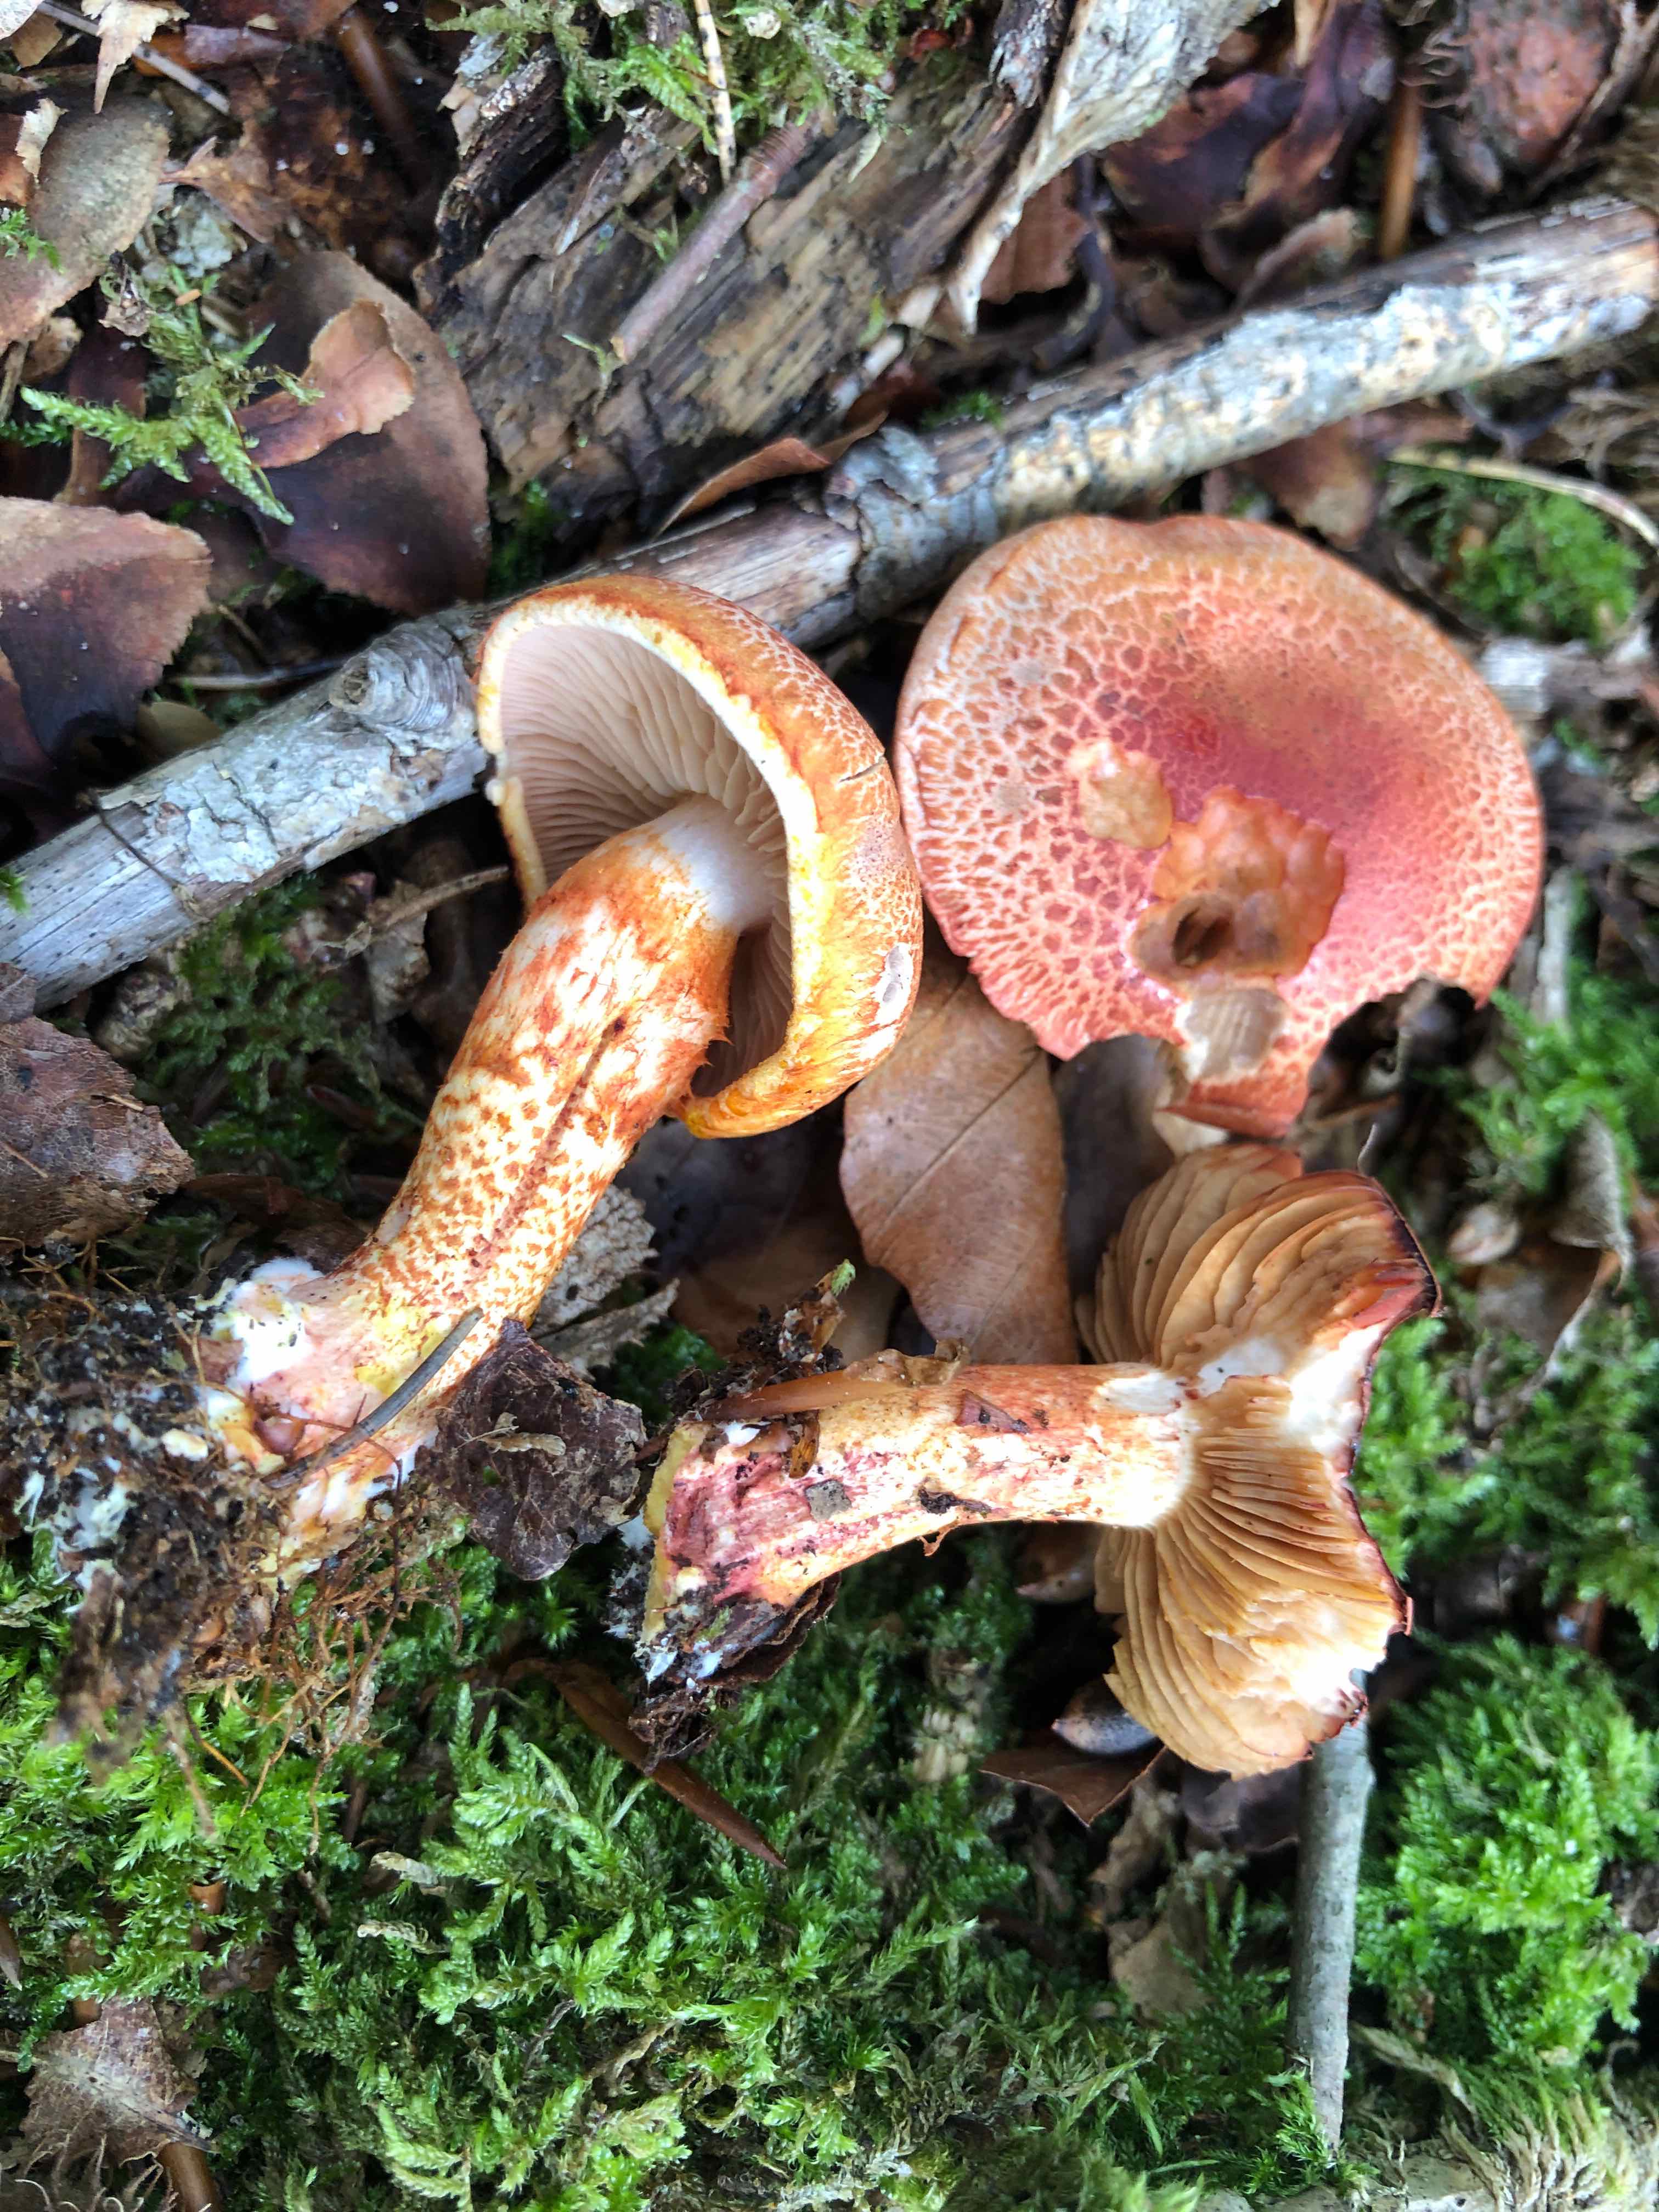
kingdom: Fungi
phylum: Basidiomycota
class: Agaricomycetes
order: Agaricales
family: Cortinariaceae
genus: Cortinarius
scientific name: Cortinarius bolaris
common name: cinnoberskællet slørhat
